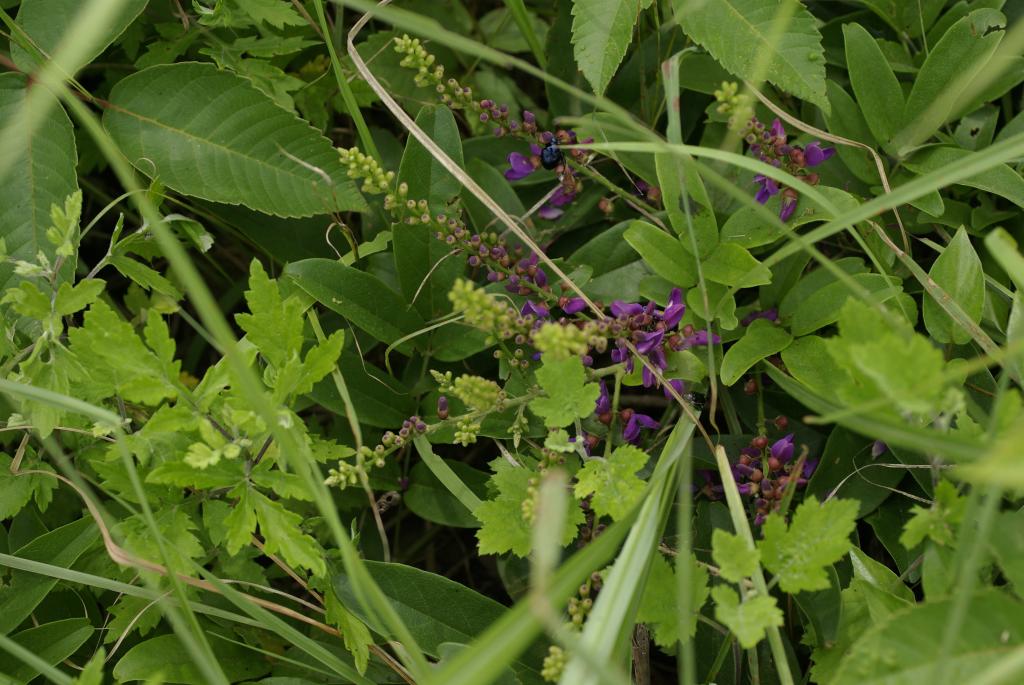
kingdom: Plantae
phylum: Tracheophyta
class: Magnoliopsida
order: Fabales
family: Fabaceae
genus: Wisteriopsis
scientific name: Wisteriopsis reticulata
